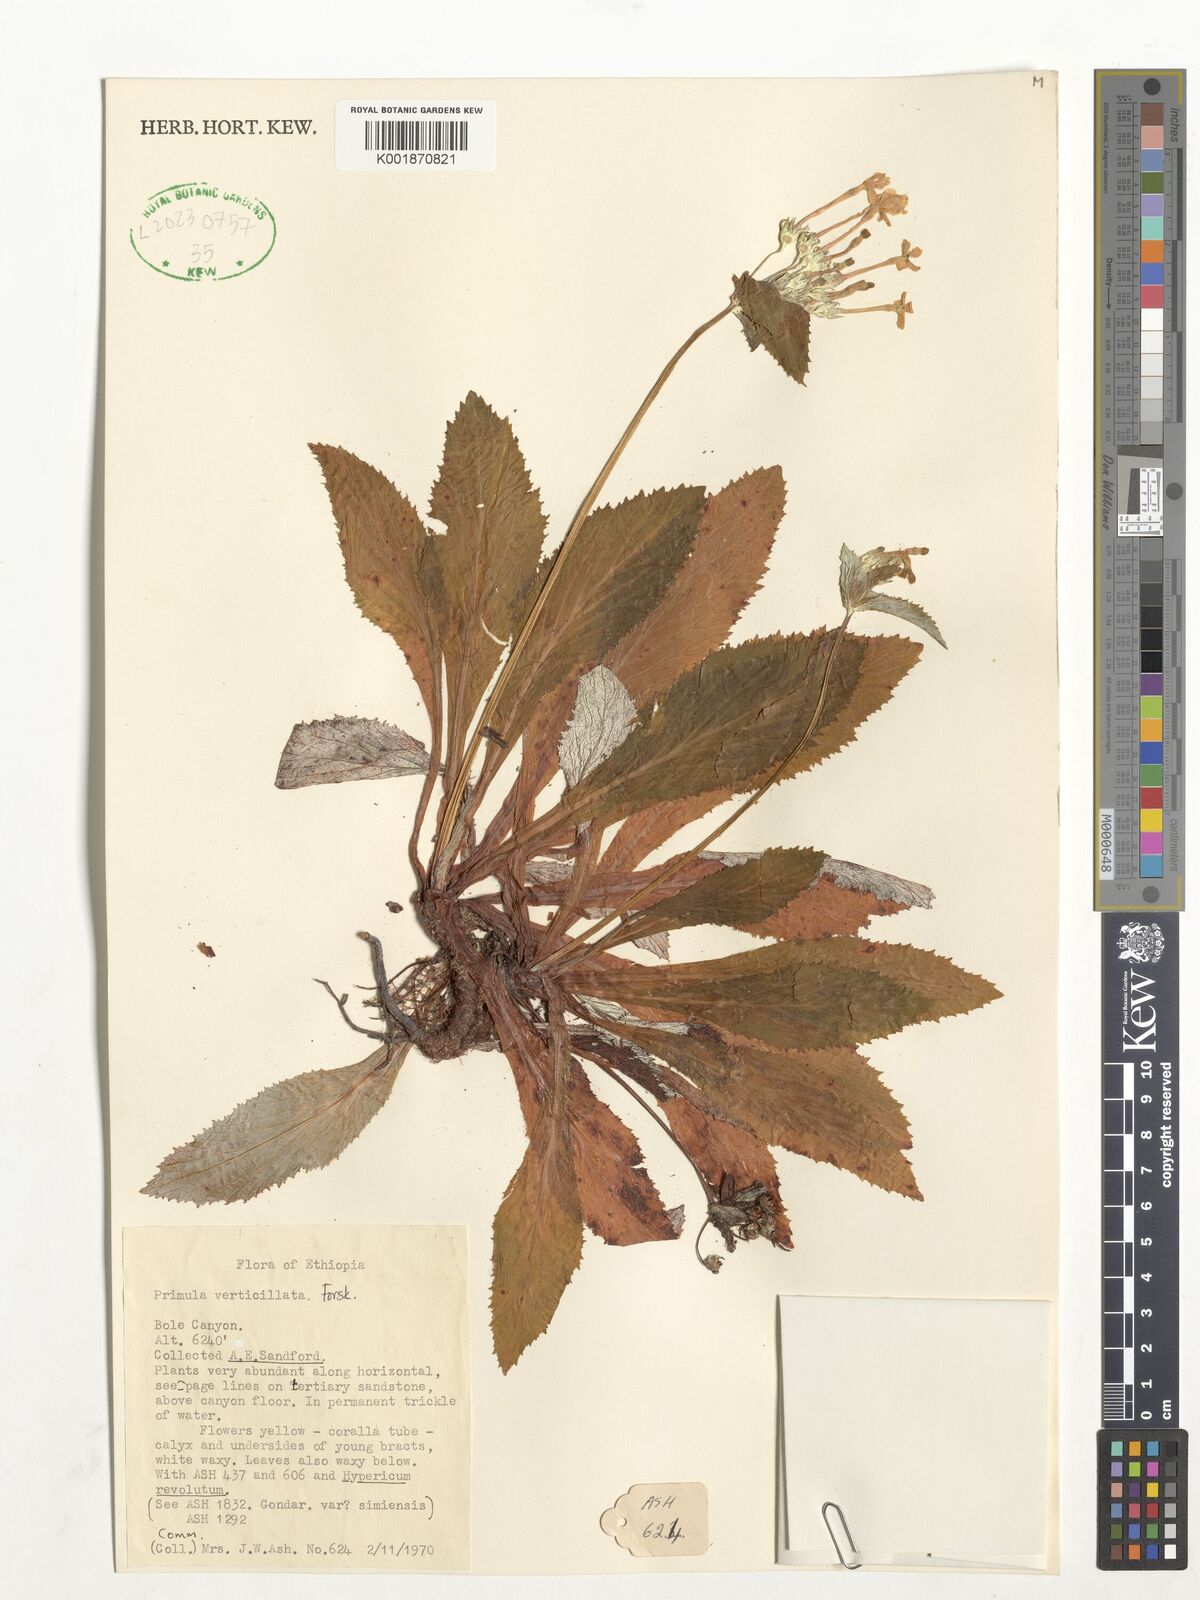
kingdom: Plantae
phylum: Tracheophyta
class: Magnoliopsida
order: Ericales
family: Primulaceae
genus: Evotrochis
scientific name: Evotrochis simensis
